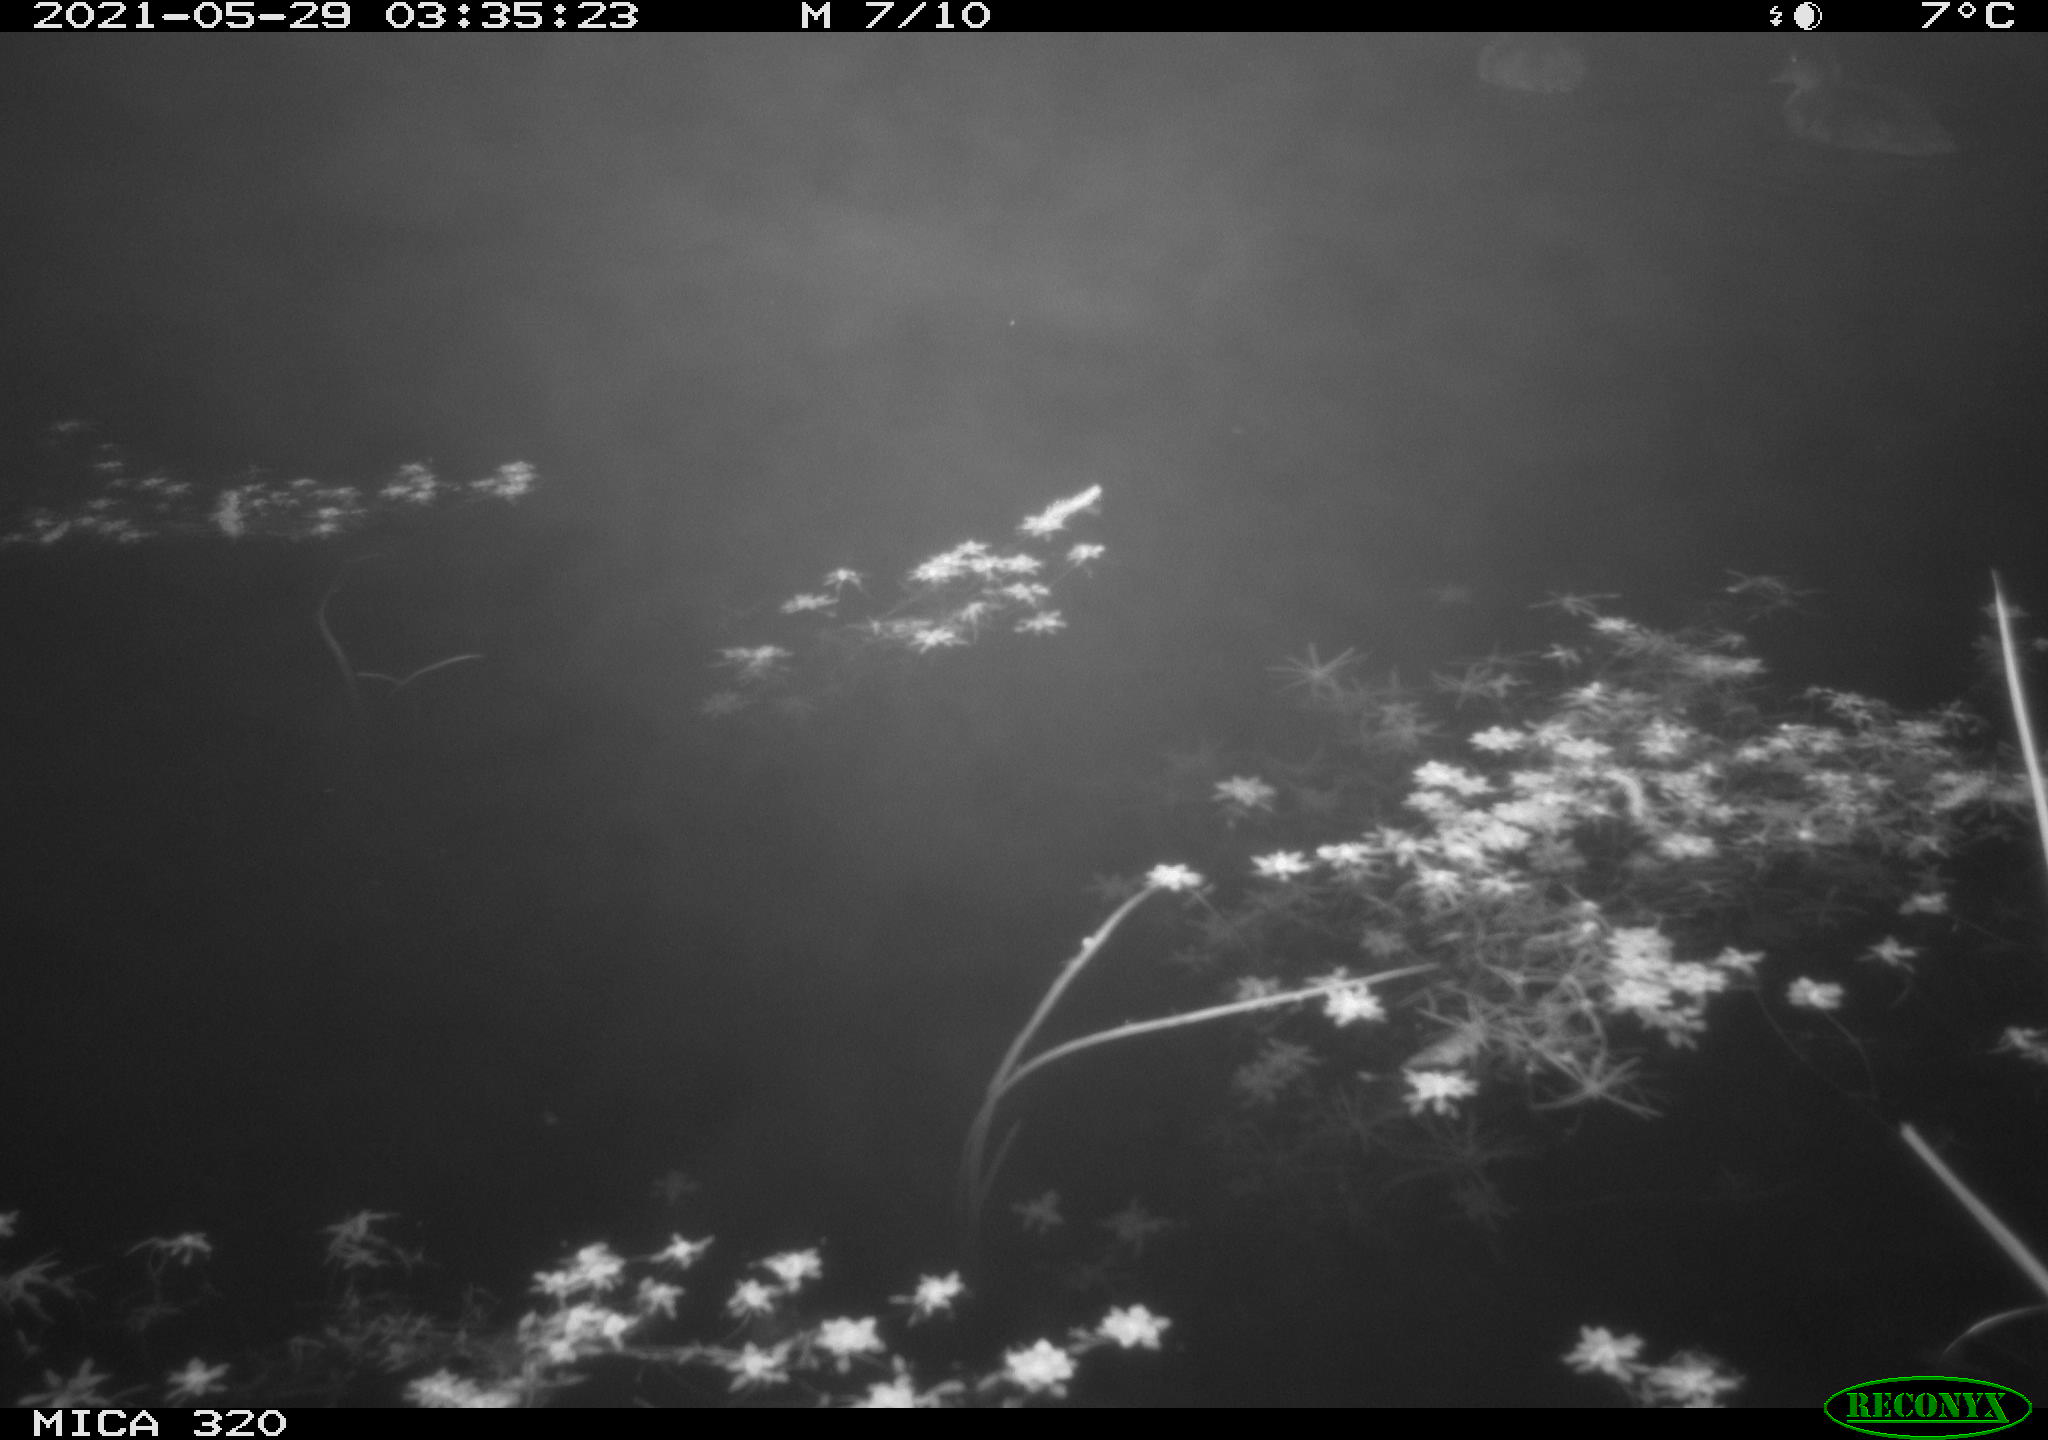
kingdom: Animalia
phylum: Chordata
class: Aves
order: Anseriformes
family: Anatidae
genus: Anas
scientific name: Anas platyrhynchos
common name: Mallard
